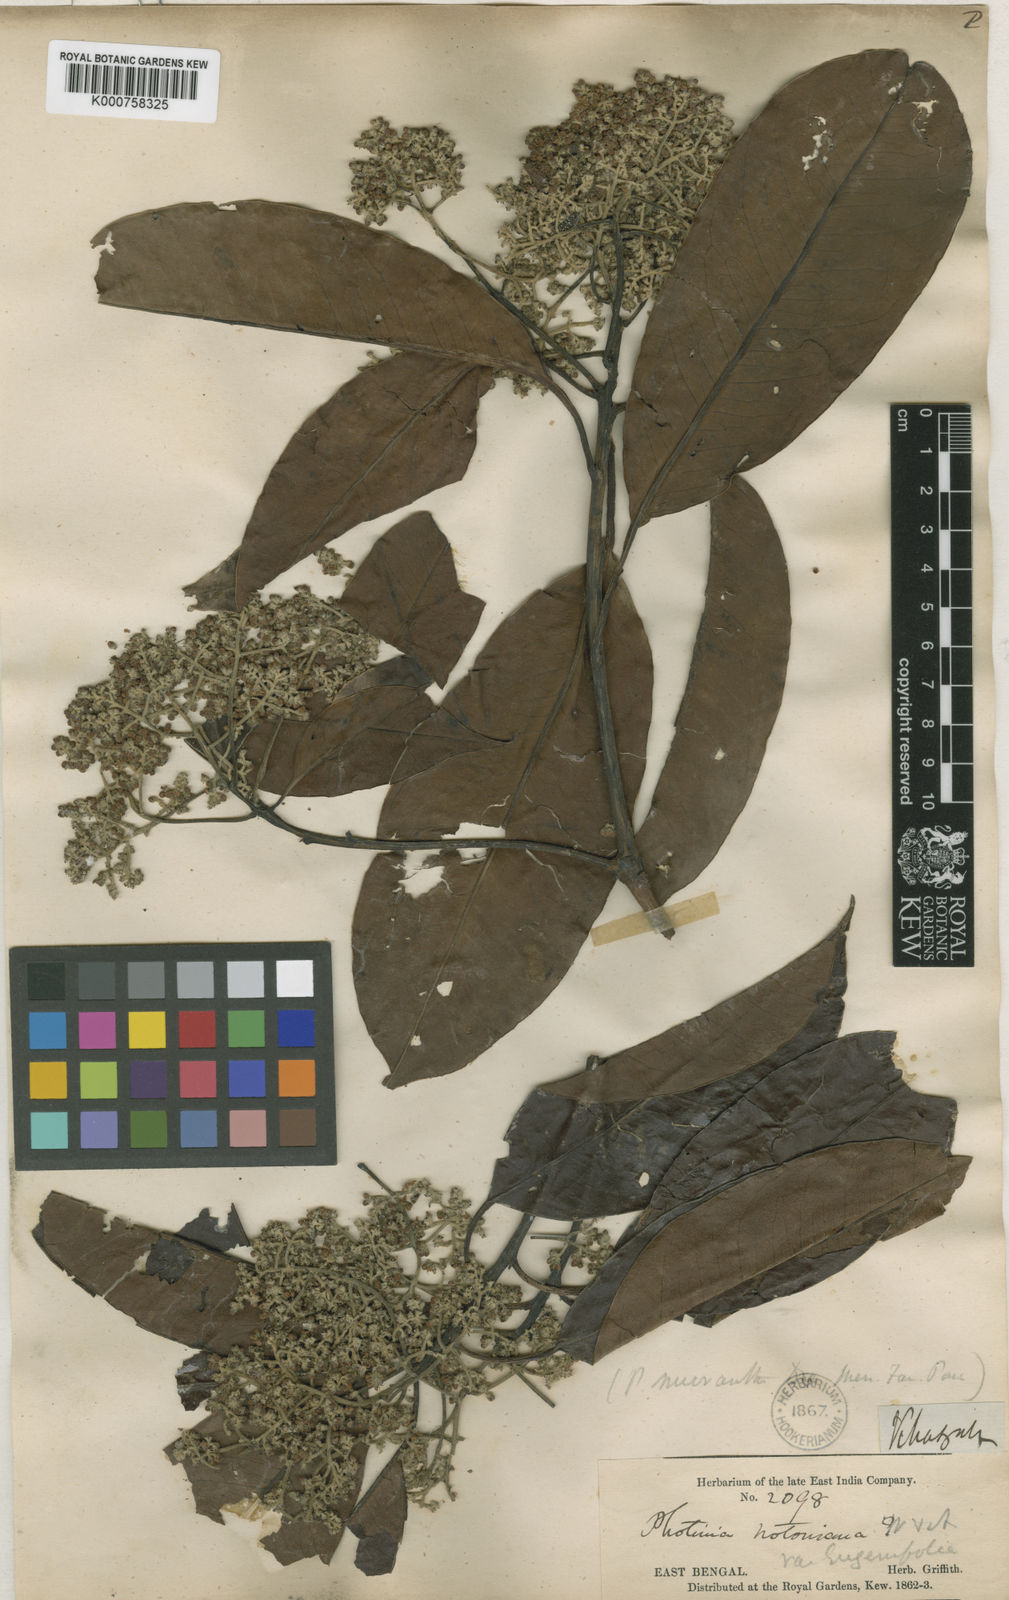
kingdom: Plantae
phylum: Tracheophyta
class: Magnoliopsida
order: Rosales
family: Rosaceae
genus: Photinia
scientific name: Photinia integrifolia
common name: Himalayan chokeberry
